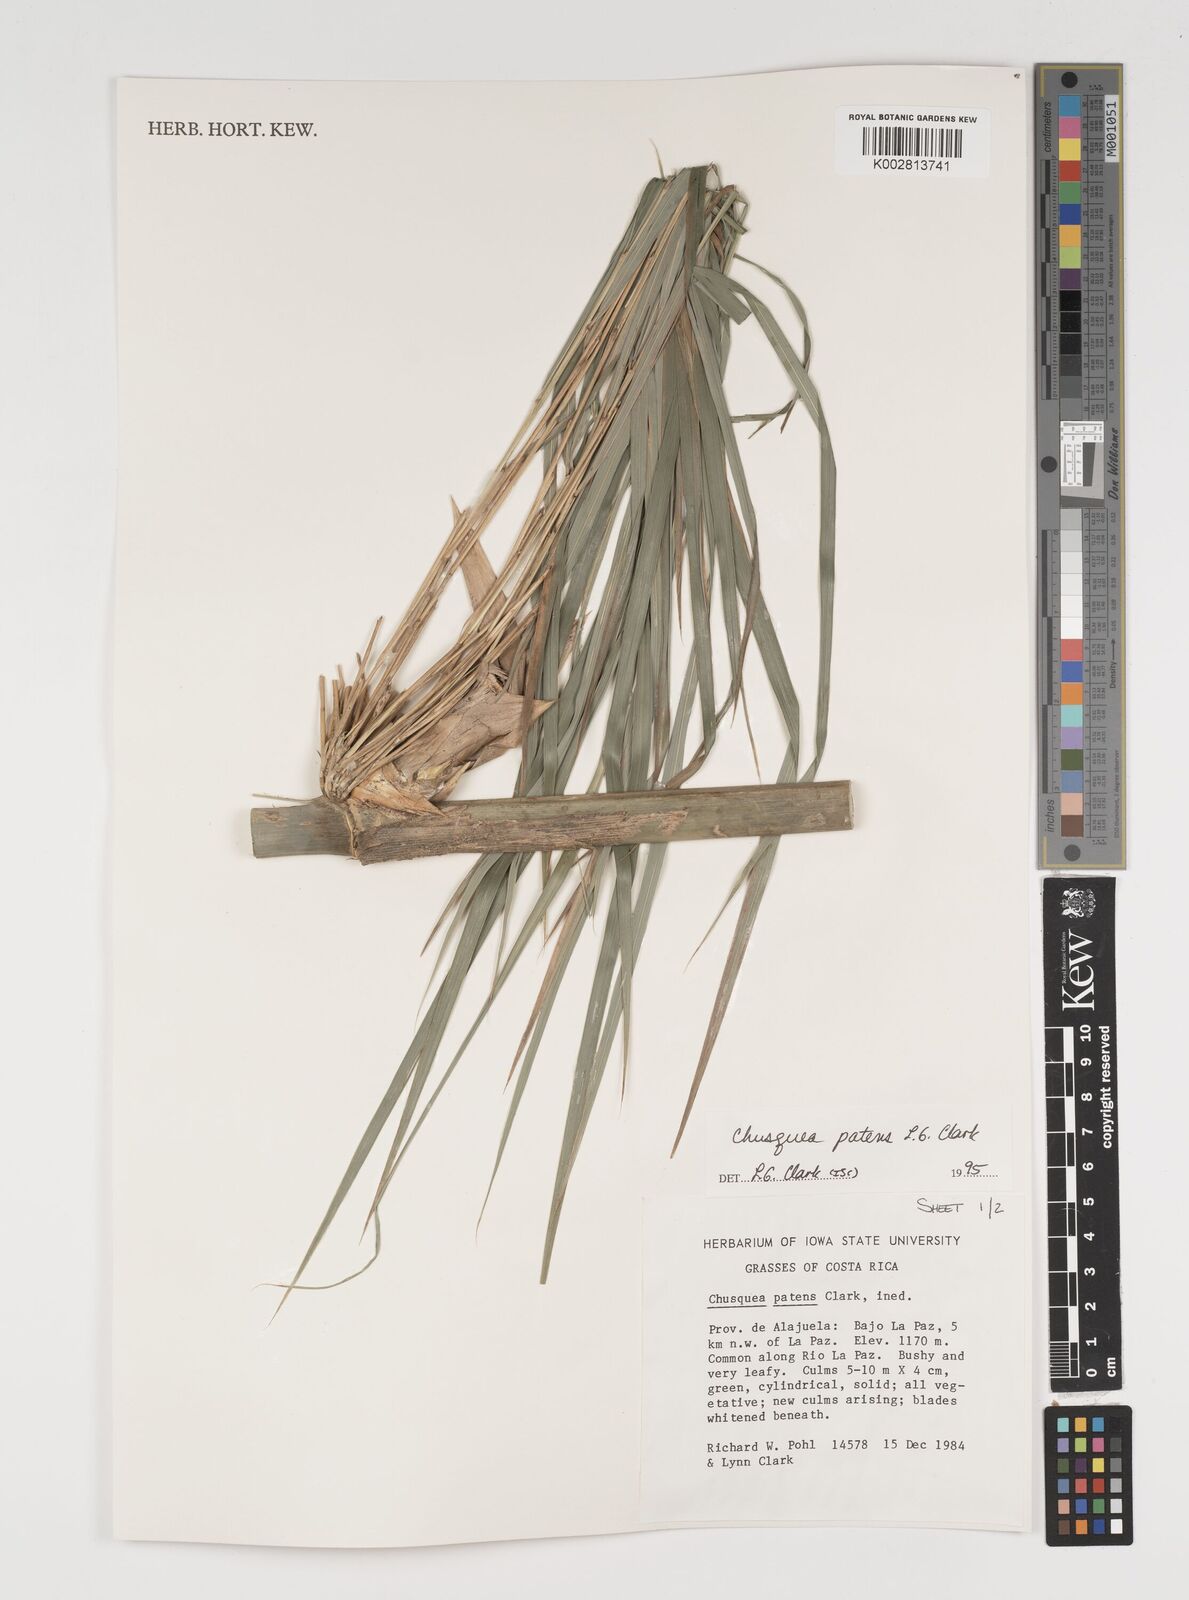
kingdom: Plantae
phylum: Tracheophyta
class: Liliopsida
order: Poales
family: Poaceae
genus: Chusquea
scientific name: Chusquea patens
